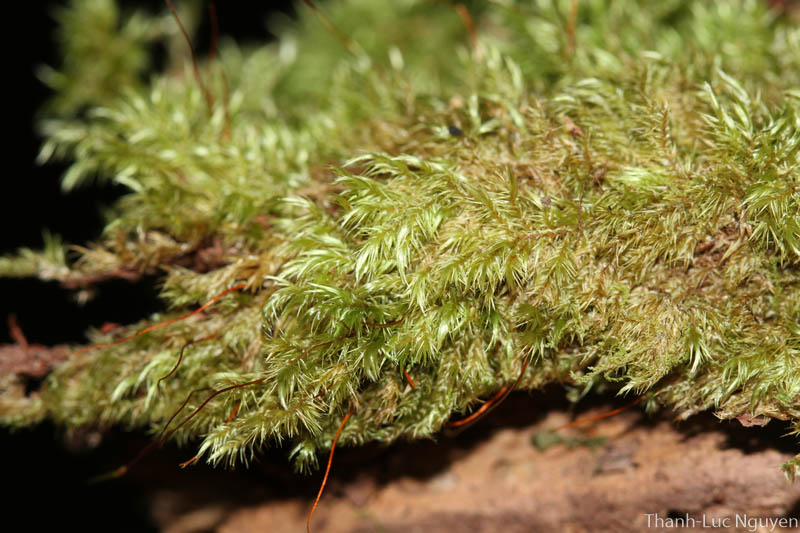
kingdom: Plantae
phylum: Bryophyta
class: Bryopsida
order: Hypnales
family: Sematophyllaceae
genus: Acroporium
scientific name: Acroporium
